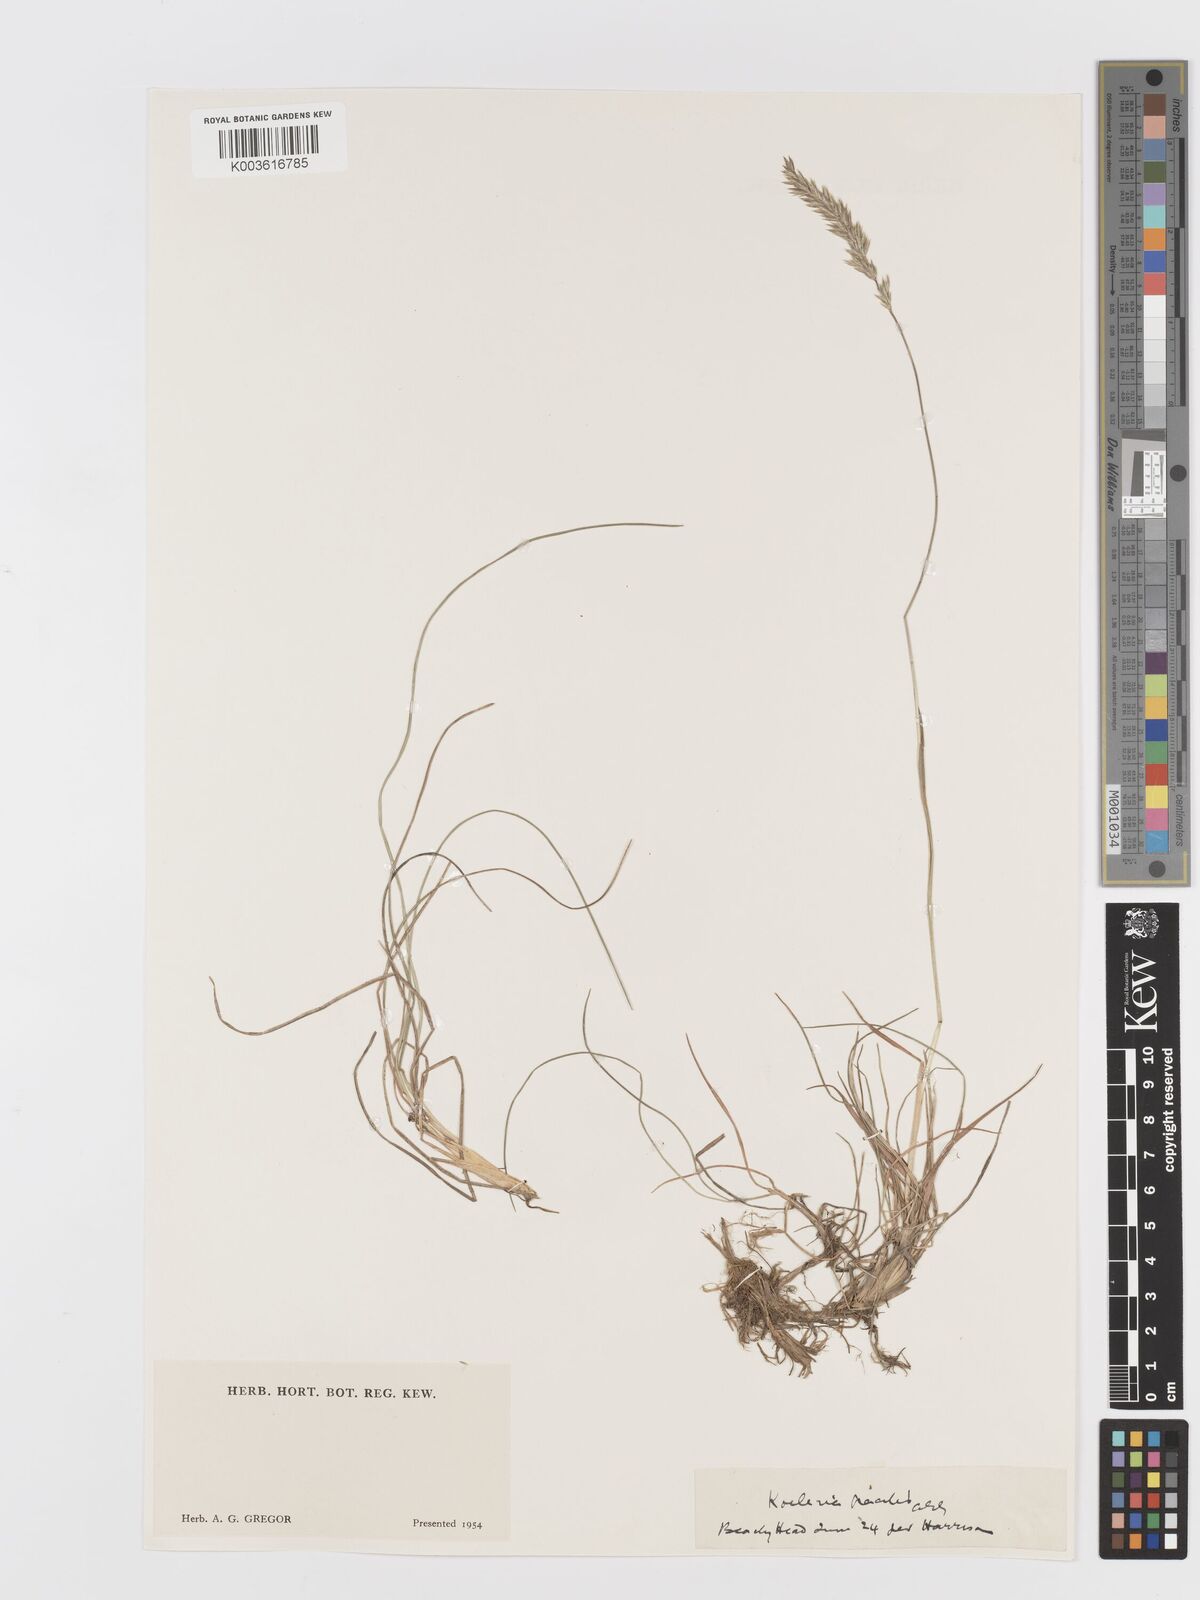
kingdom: Plantae
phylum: Tracheophyta
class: Liliopsida
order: Poales
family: Poaceae
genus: Koeleria
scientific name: Koeleria macrantha
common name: Crested hair-grass
